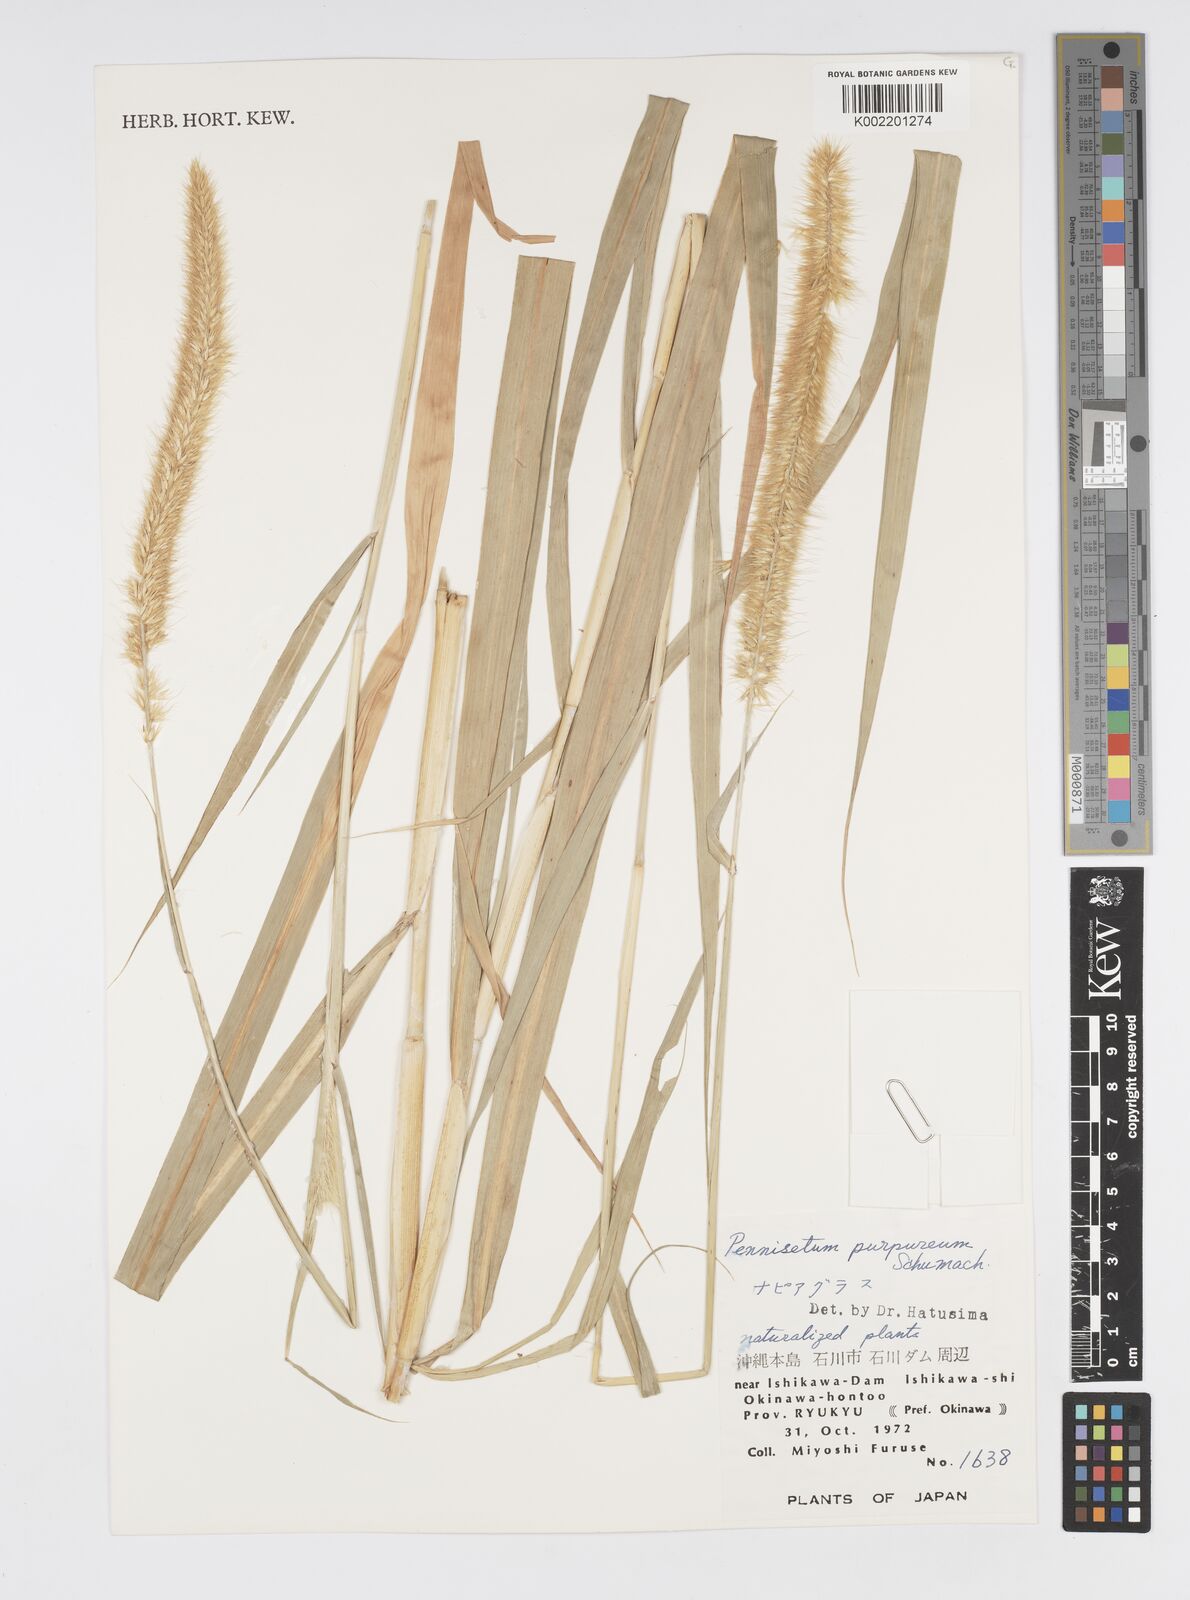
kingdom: Plantae
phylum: Tracheophyta
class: Liliopsida
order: Poales
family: Poaceae
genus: Cenchrus
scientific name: Cenchrus purpureus
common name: Elephant grass
